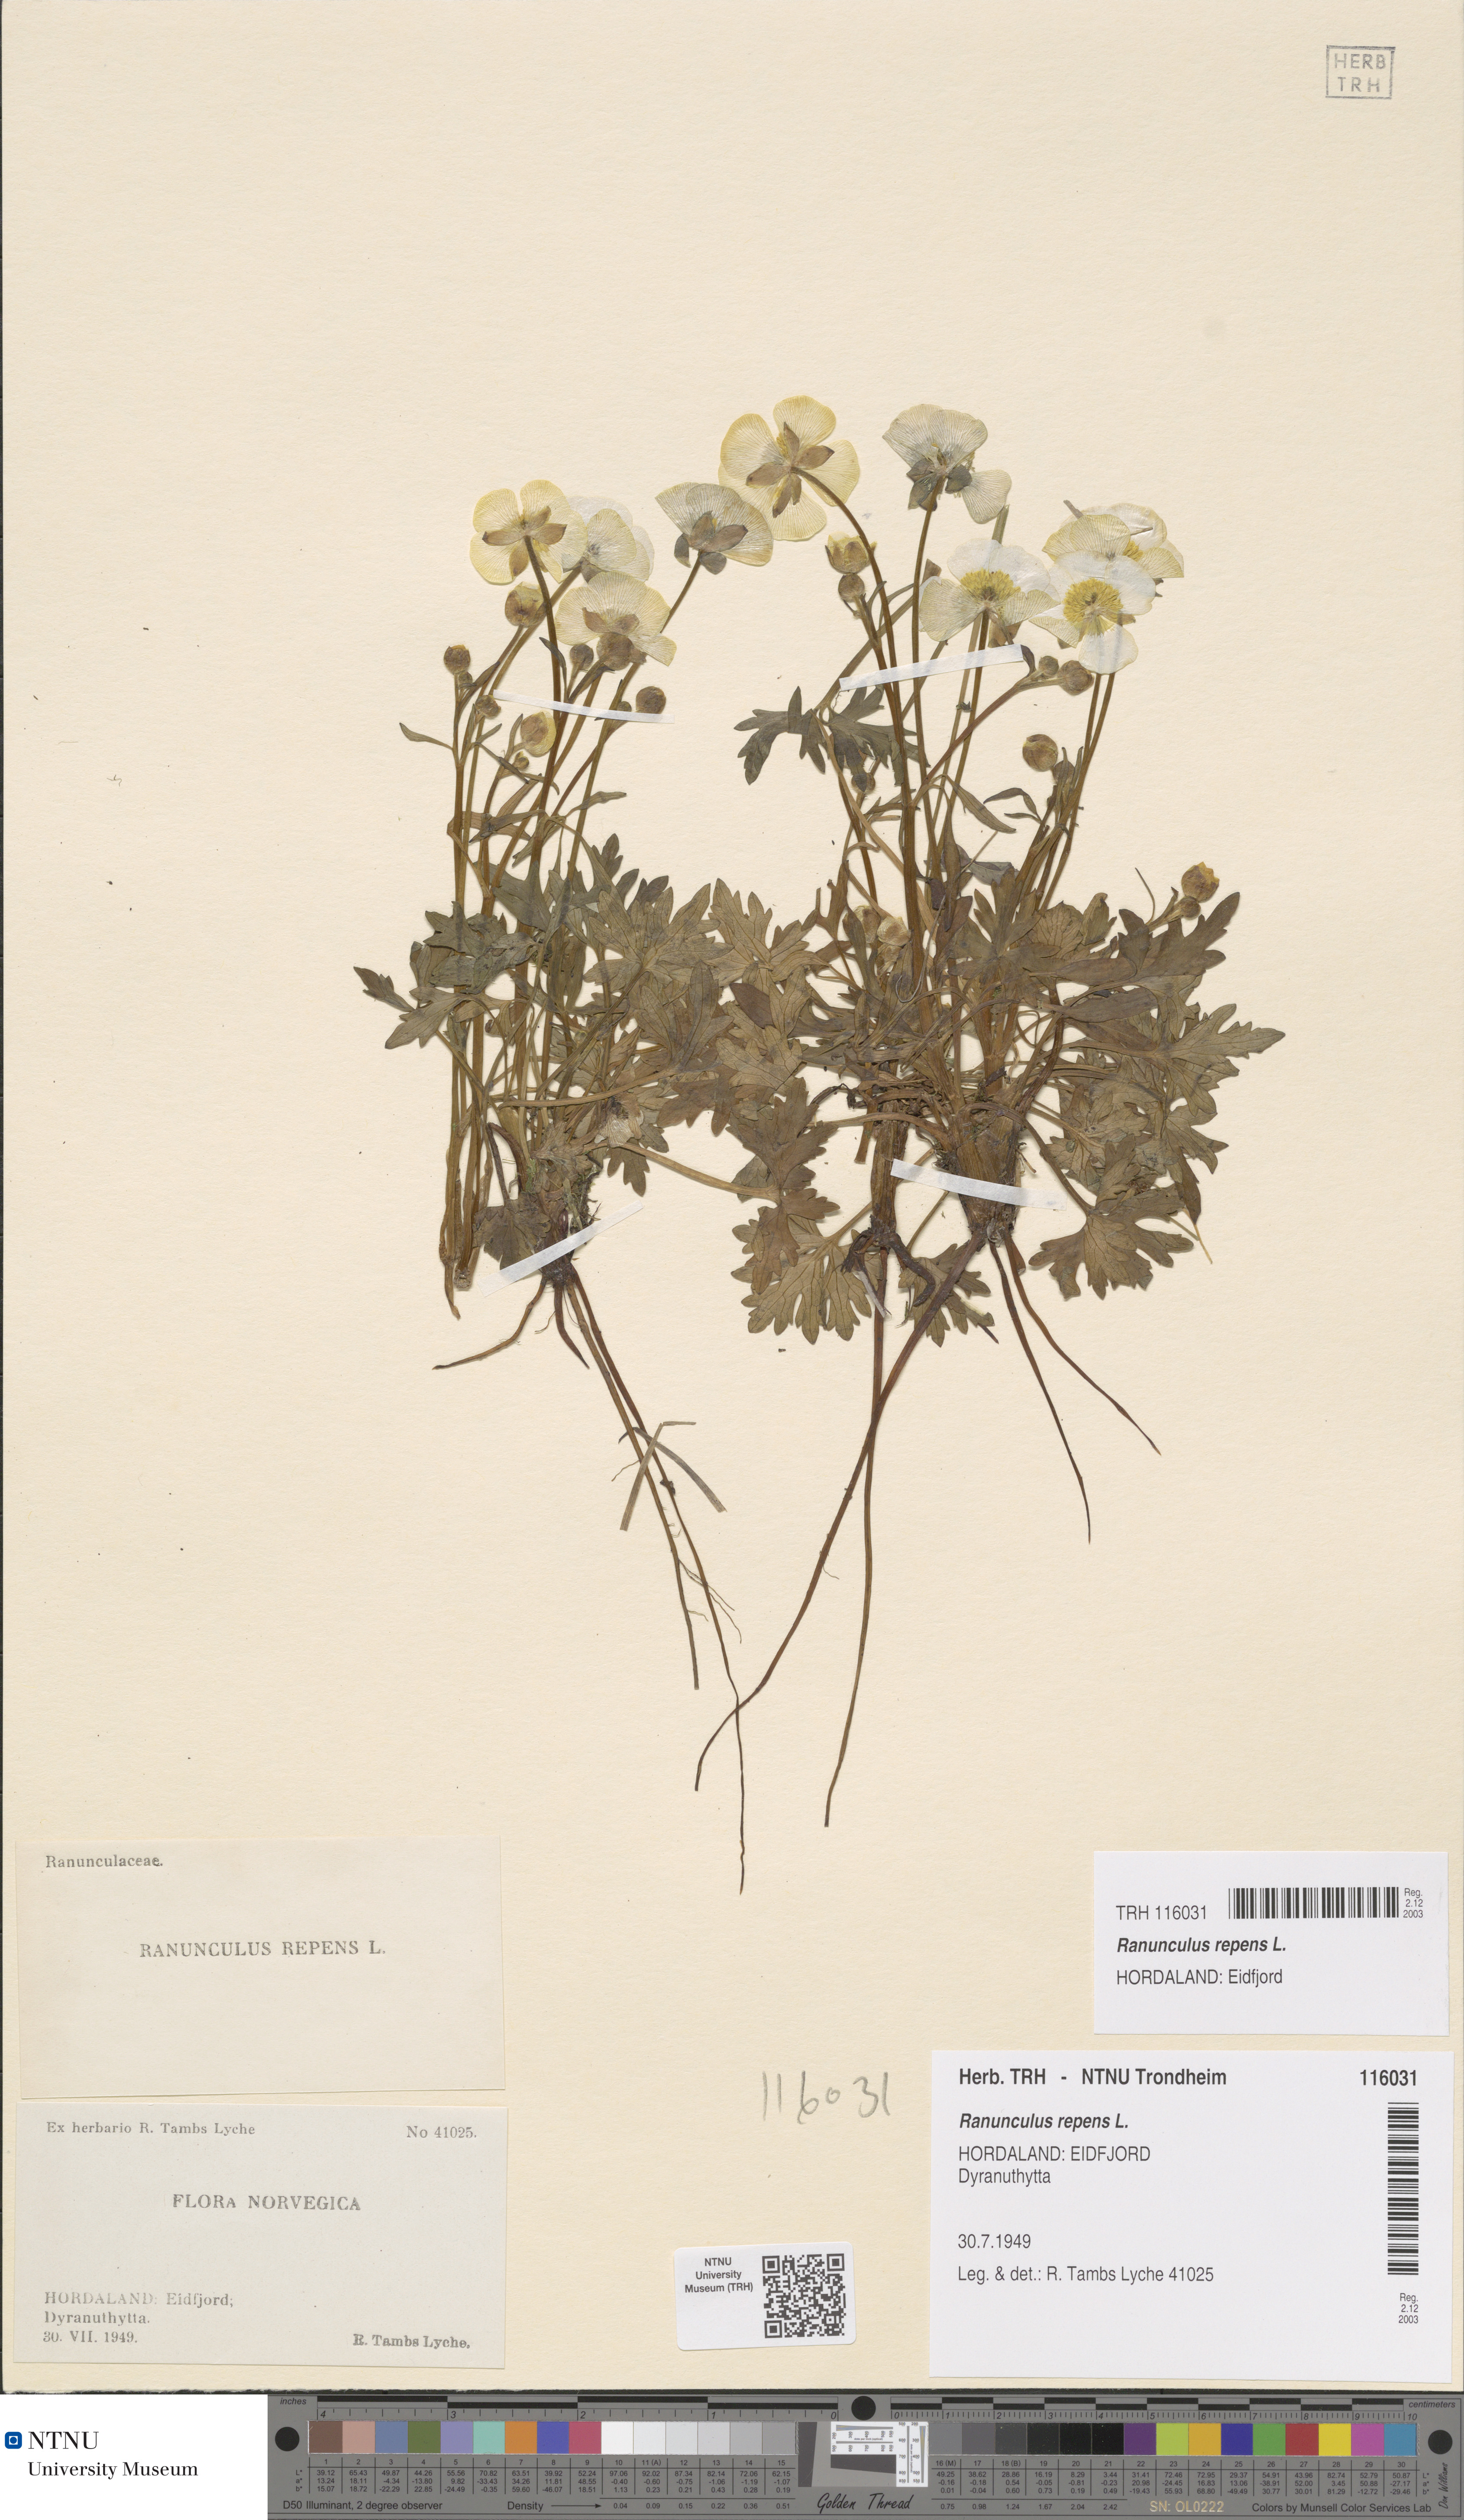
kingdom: Plantae
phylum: Tracheophyta
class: Magnoliopsida
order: Ranunculales
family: Ranunculaceae
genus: Ranunculus
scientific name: Ranunculus repens
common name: Creeping buttercup
